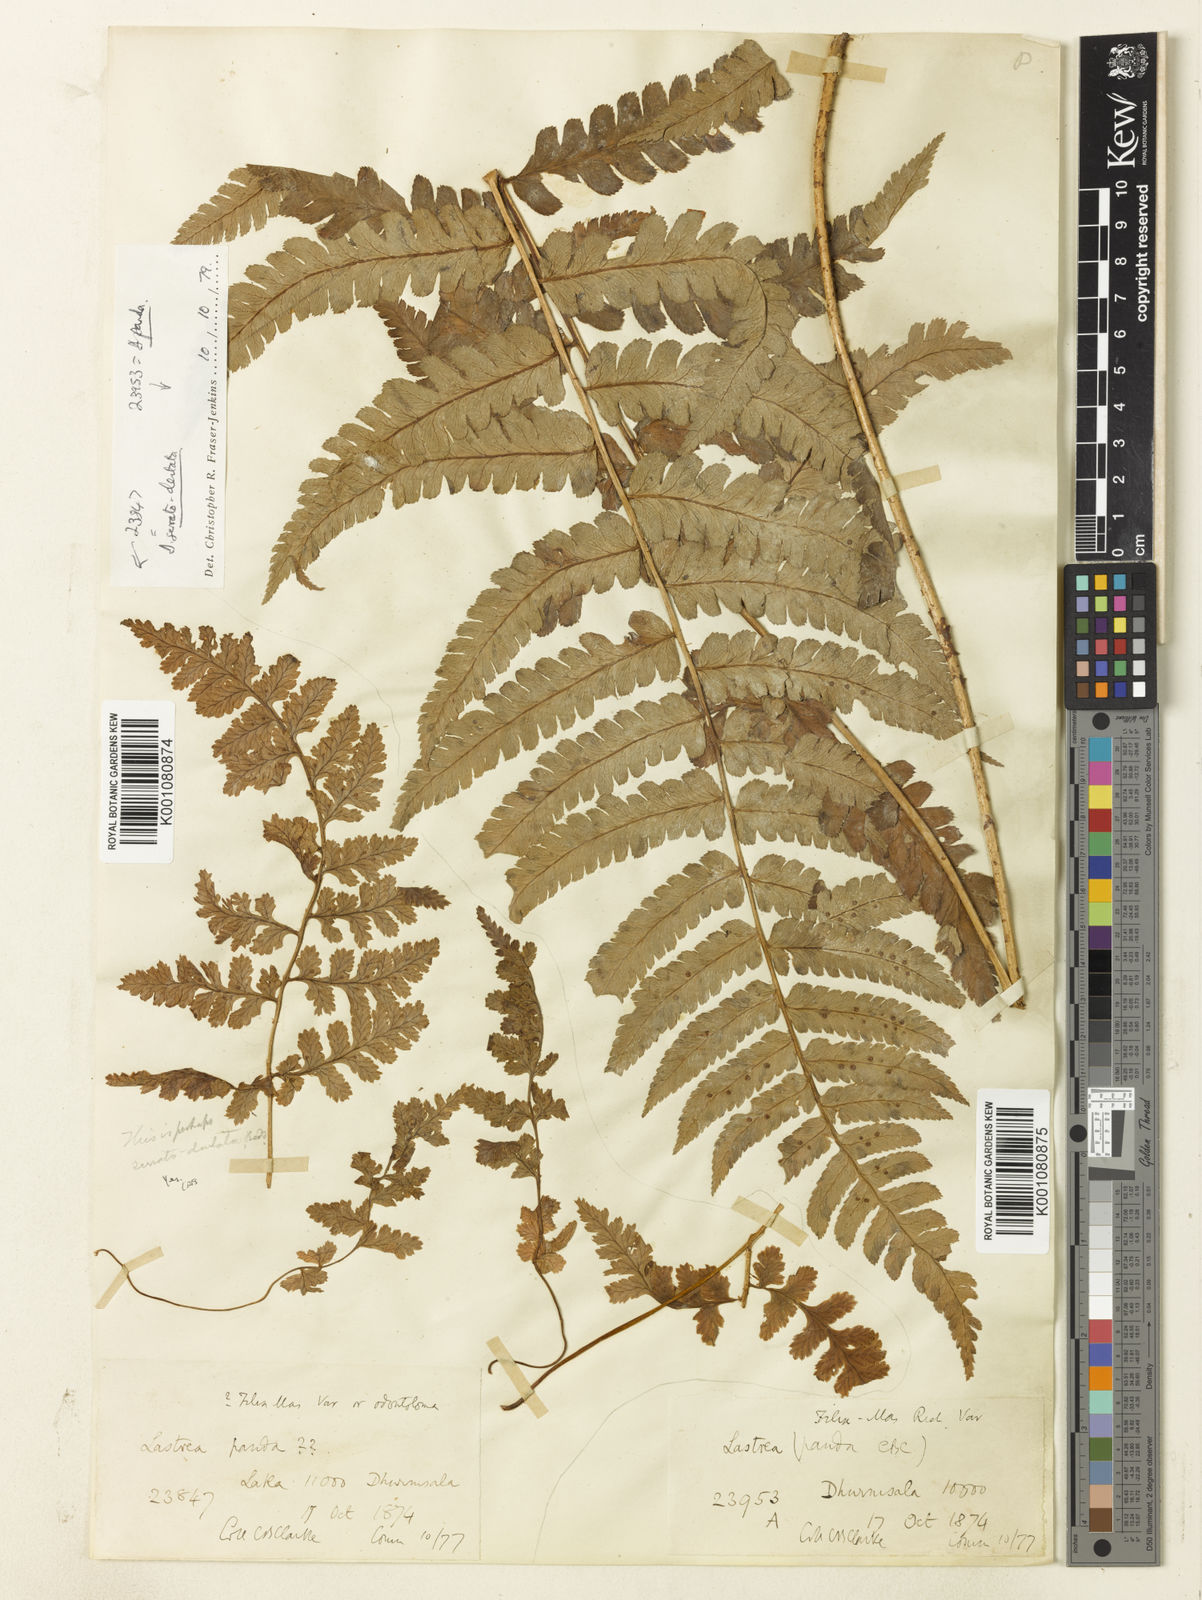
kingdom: Plantae
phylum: Tracheophyta
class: Polypodiopsida
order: Polypodiales
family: Dryopteridaceae
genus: Dryopteris
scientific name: Dryopteris panda
